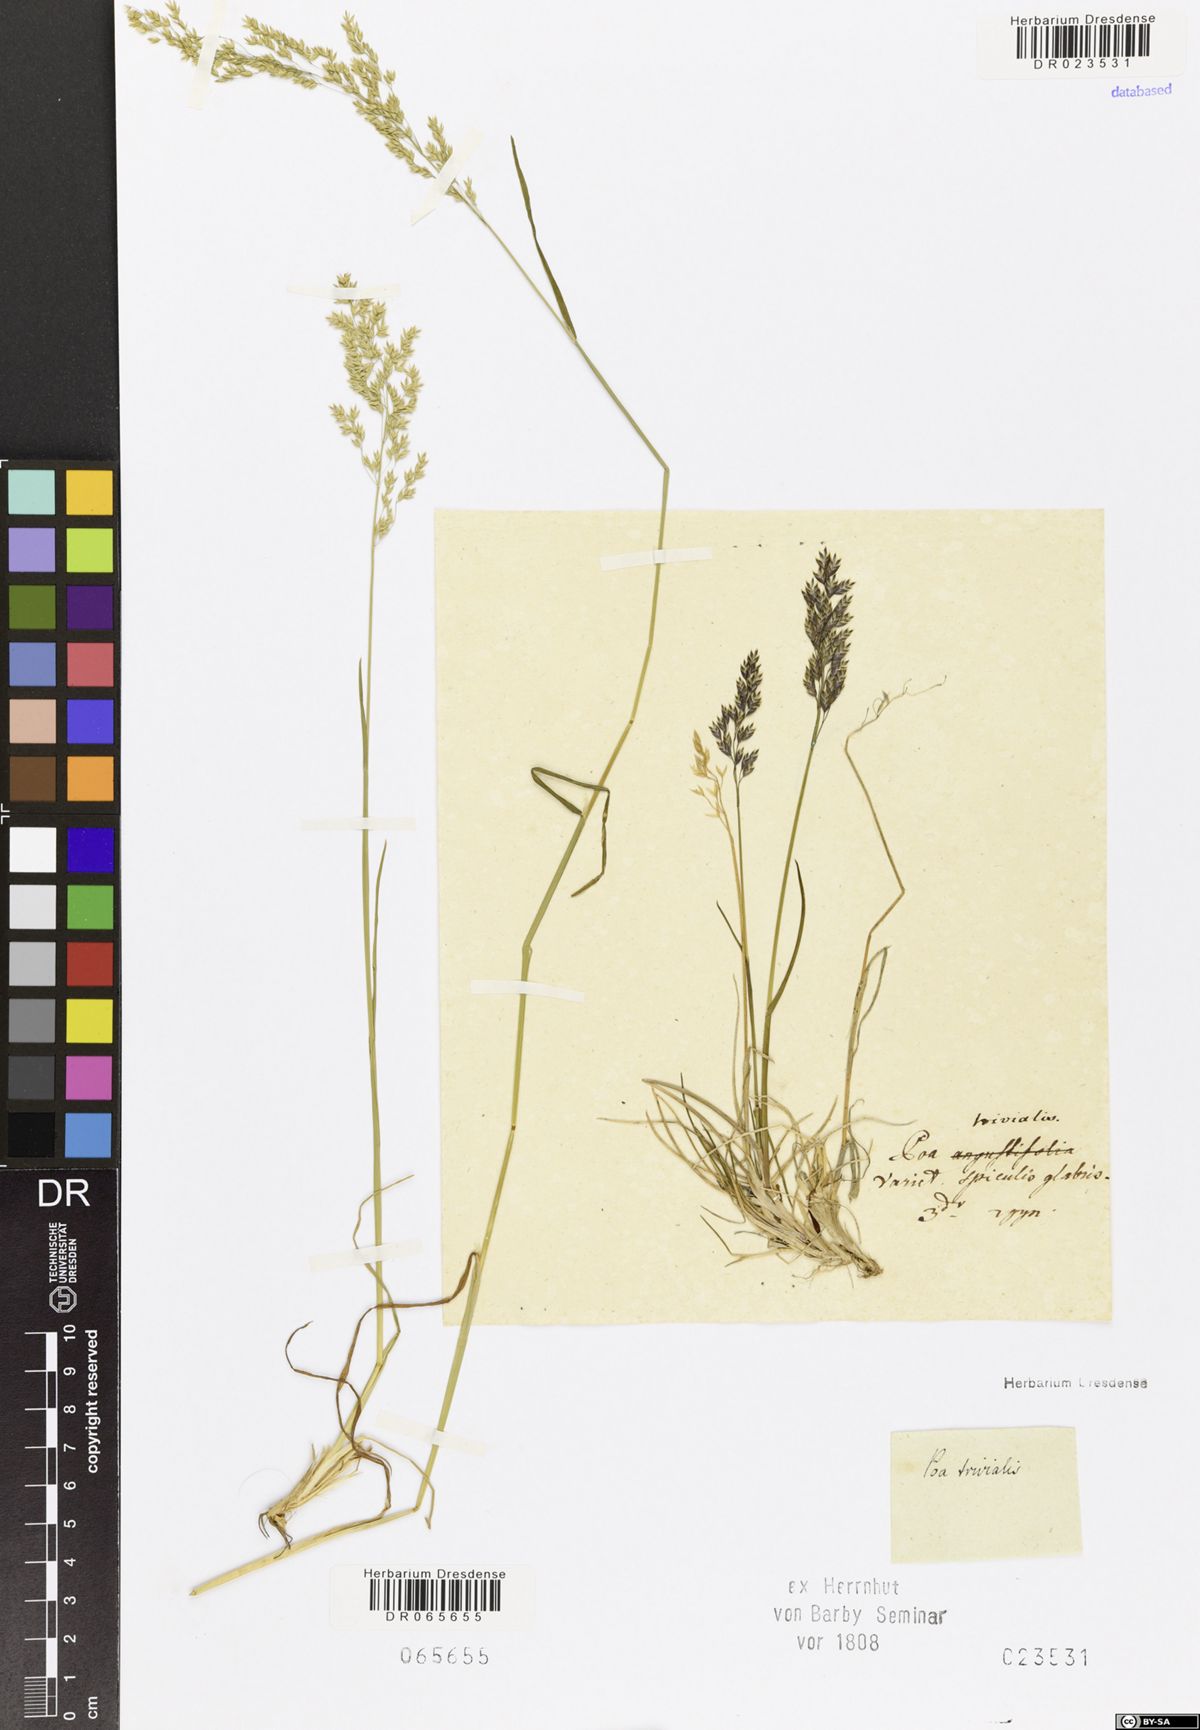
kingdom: Plantae
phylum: Tracheophyta
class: Liliopsida
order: Poales
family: Poaceae
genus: Poa
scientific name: Poa trivialis
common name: Rough bluegrass
